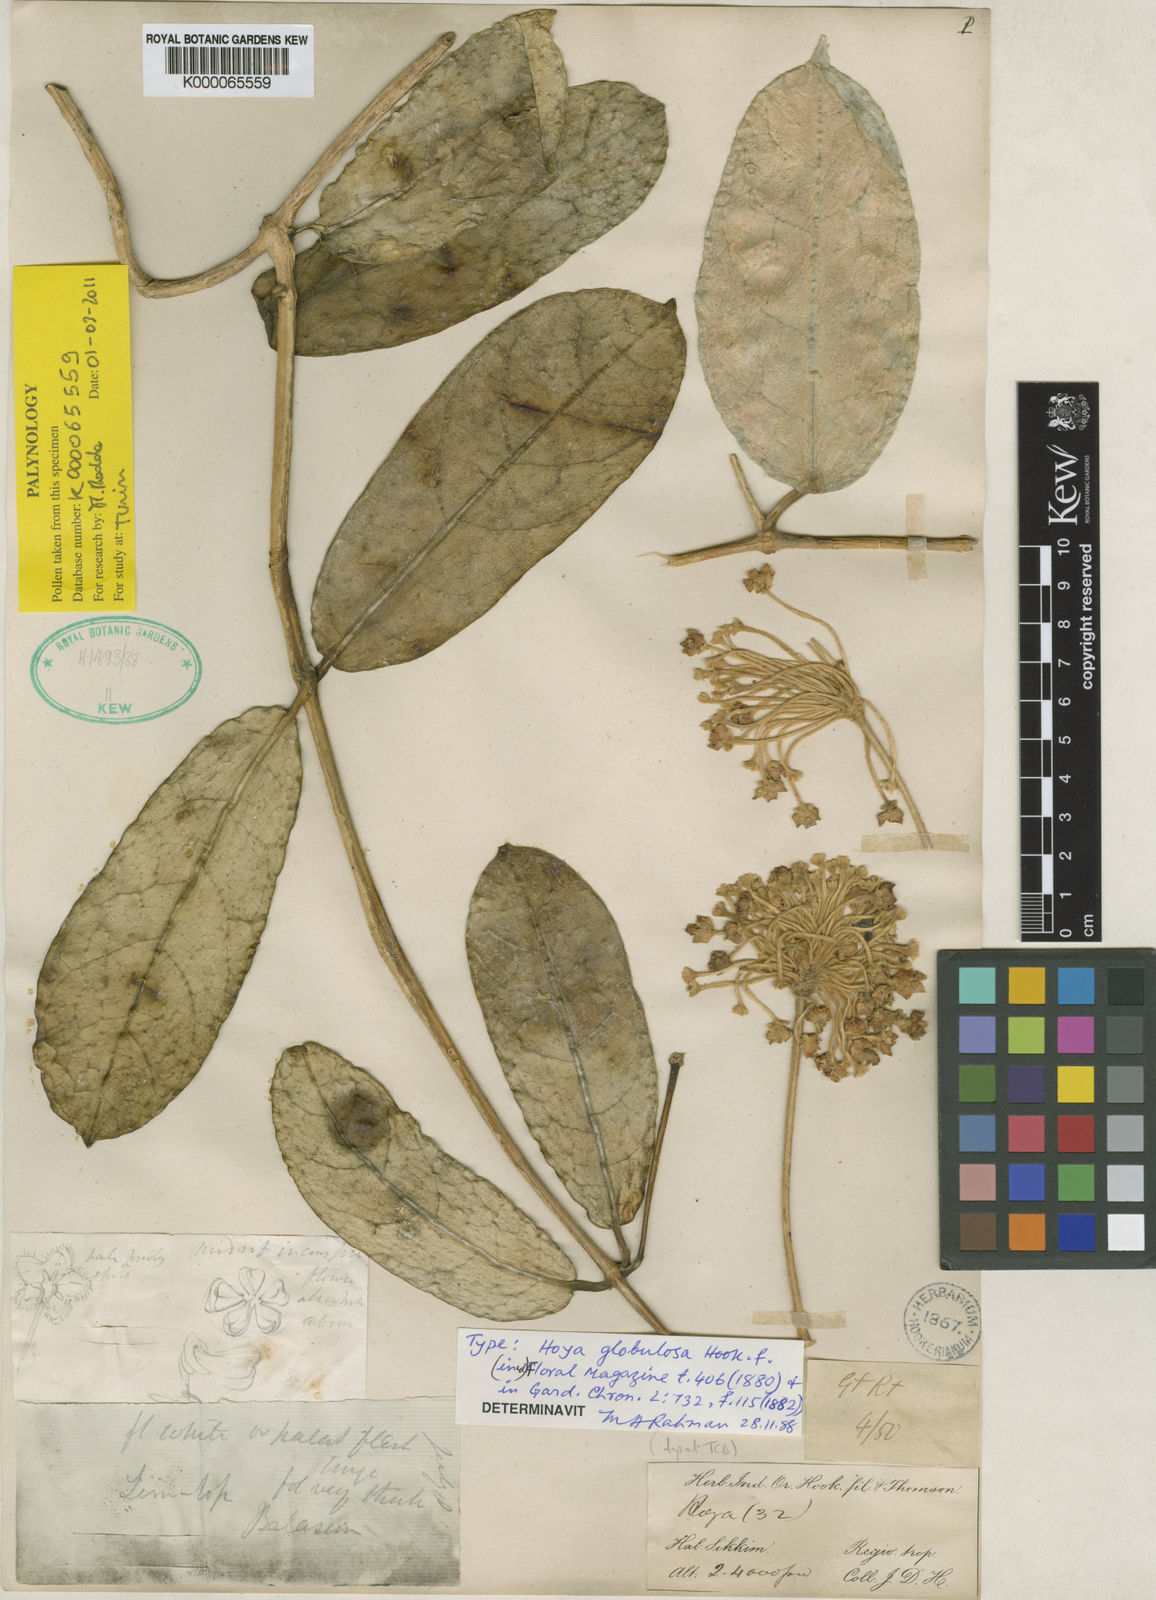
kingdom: Plantae
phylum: Tracheophyta
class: Magnoliopsida
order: Gentianales
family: Apocynaceae
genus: Hoya
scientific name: Hoya globulosa
